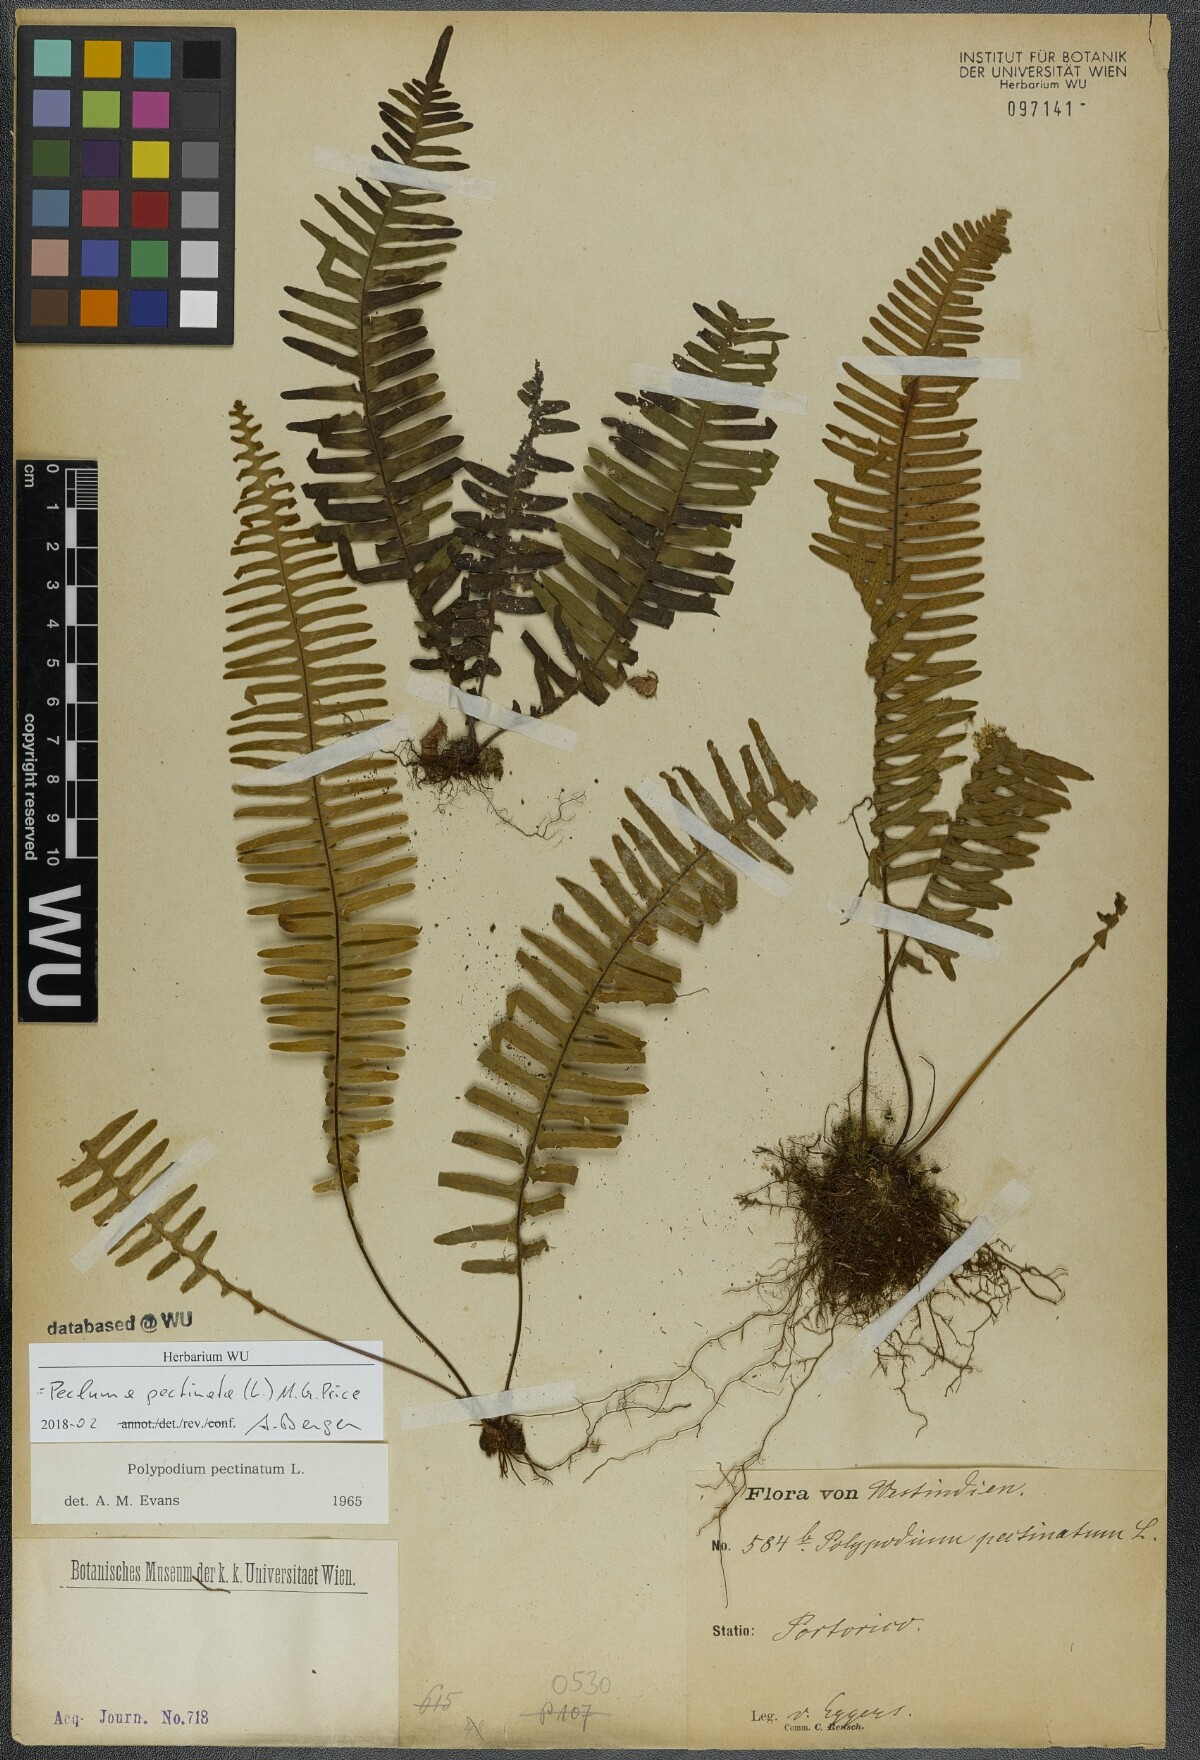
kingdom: Plantae
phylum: Tracheophyta
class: Polypodiopsida
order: Polypodiales
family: Polypodiaceae
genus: Pecluma
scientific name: Pecluma pectinata
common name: Msasa fern
